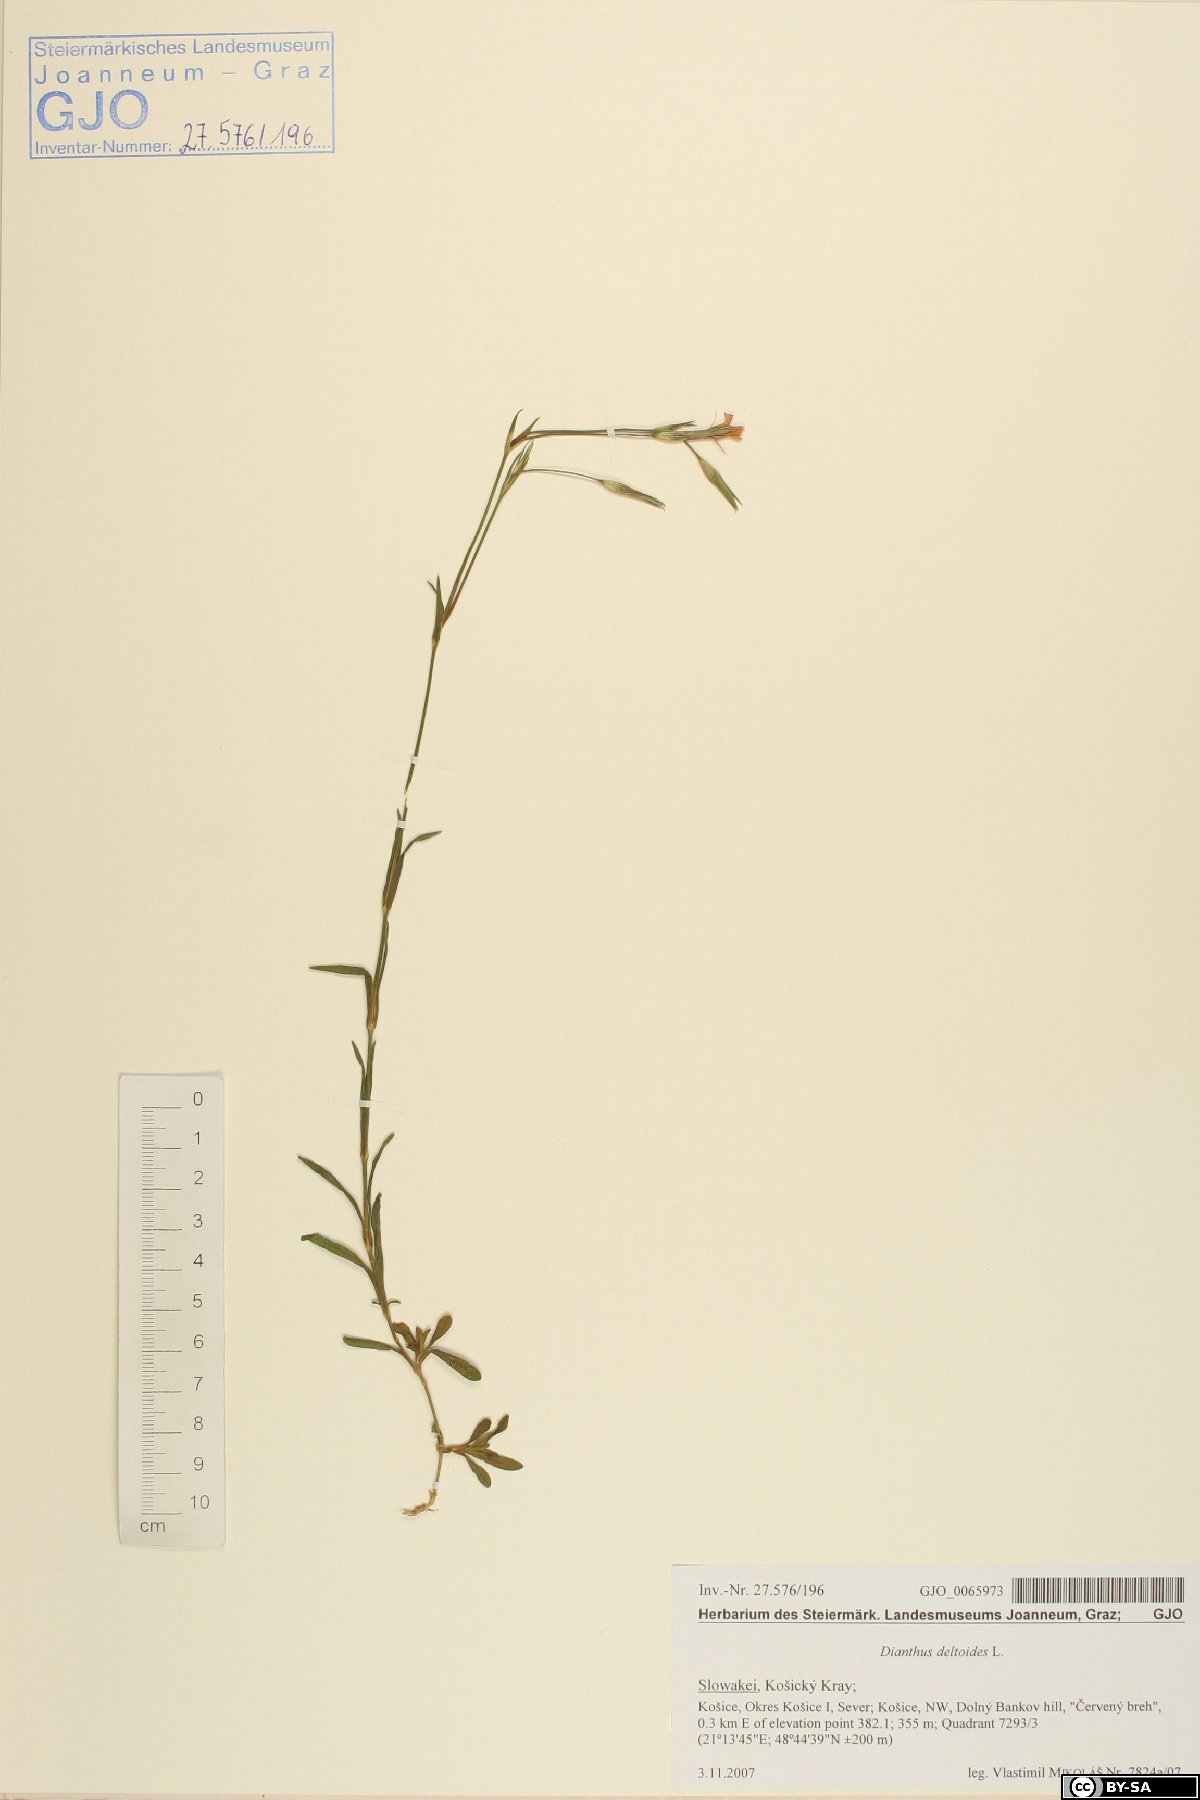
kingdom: Plantae
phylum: Tracheophyta
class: Magnoliopsida
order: Caryophyllales
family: Caryophyllaceae
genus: Dianthus
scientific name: Dianthus deltoides
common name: Maiden pink
